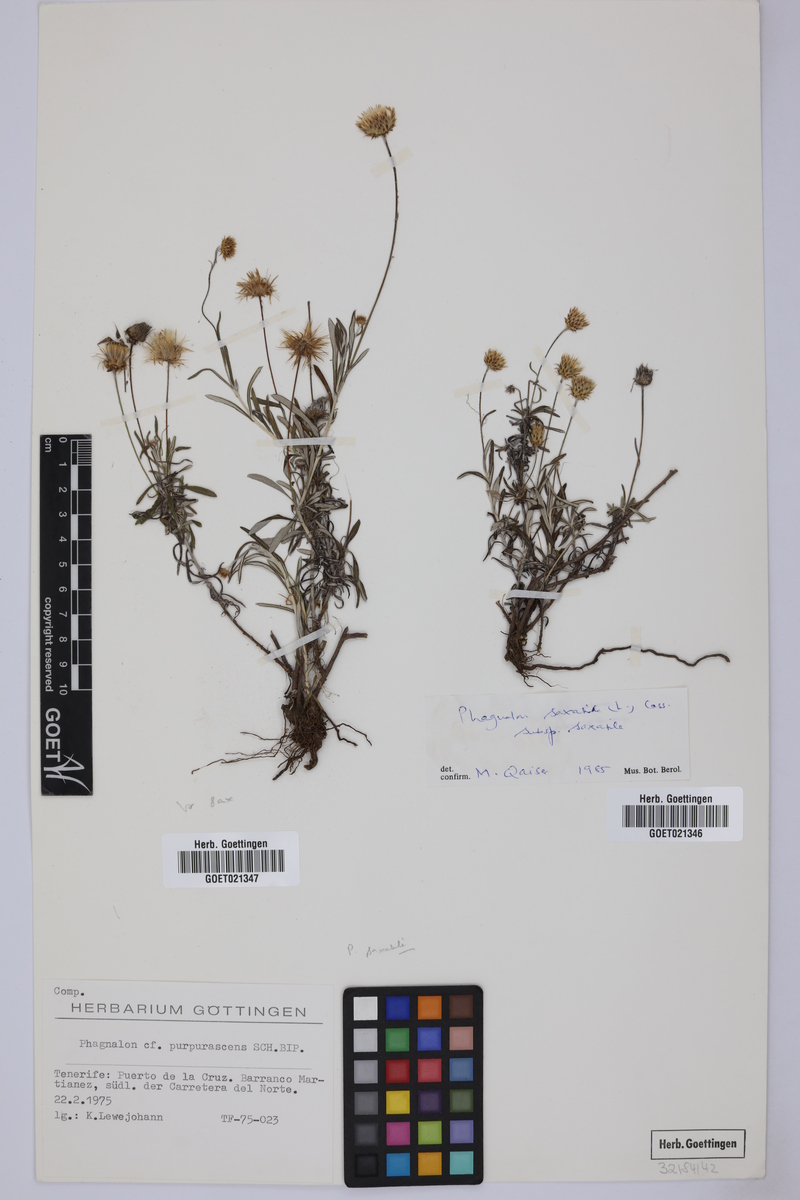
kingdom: Plantae
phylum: Tracheophyta
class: Magnoliopsida
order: Asterales
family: Asteraceae
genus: Phagnalon
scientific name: Phagnalon saxatile
